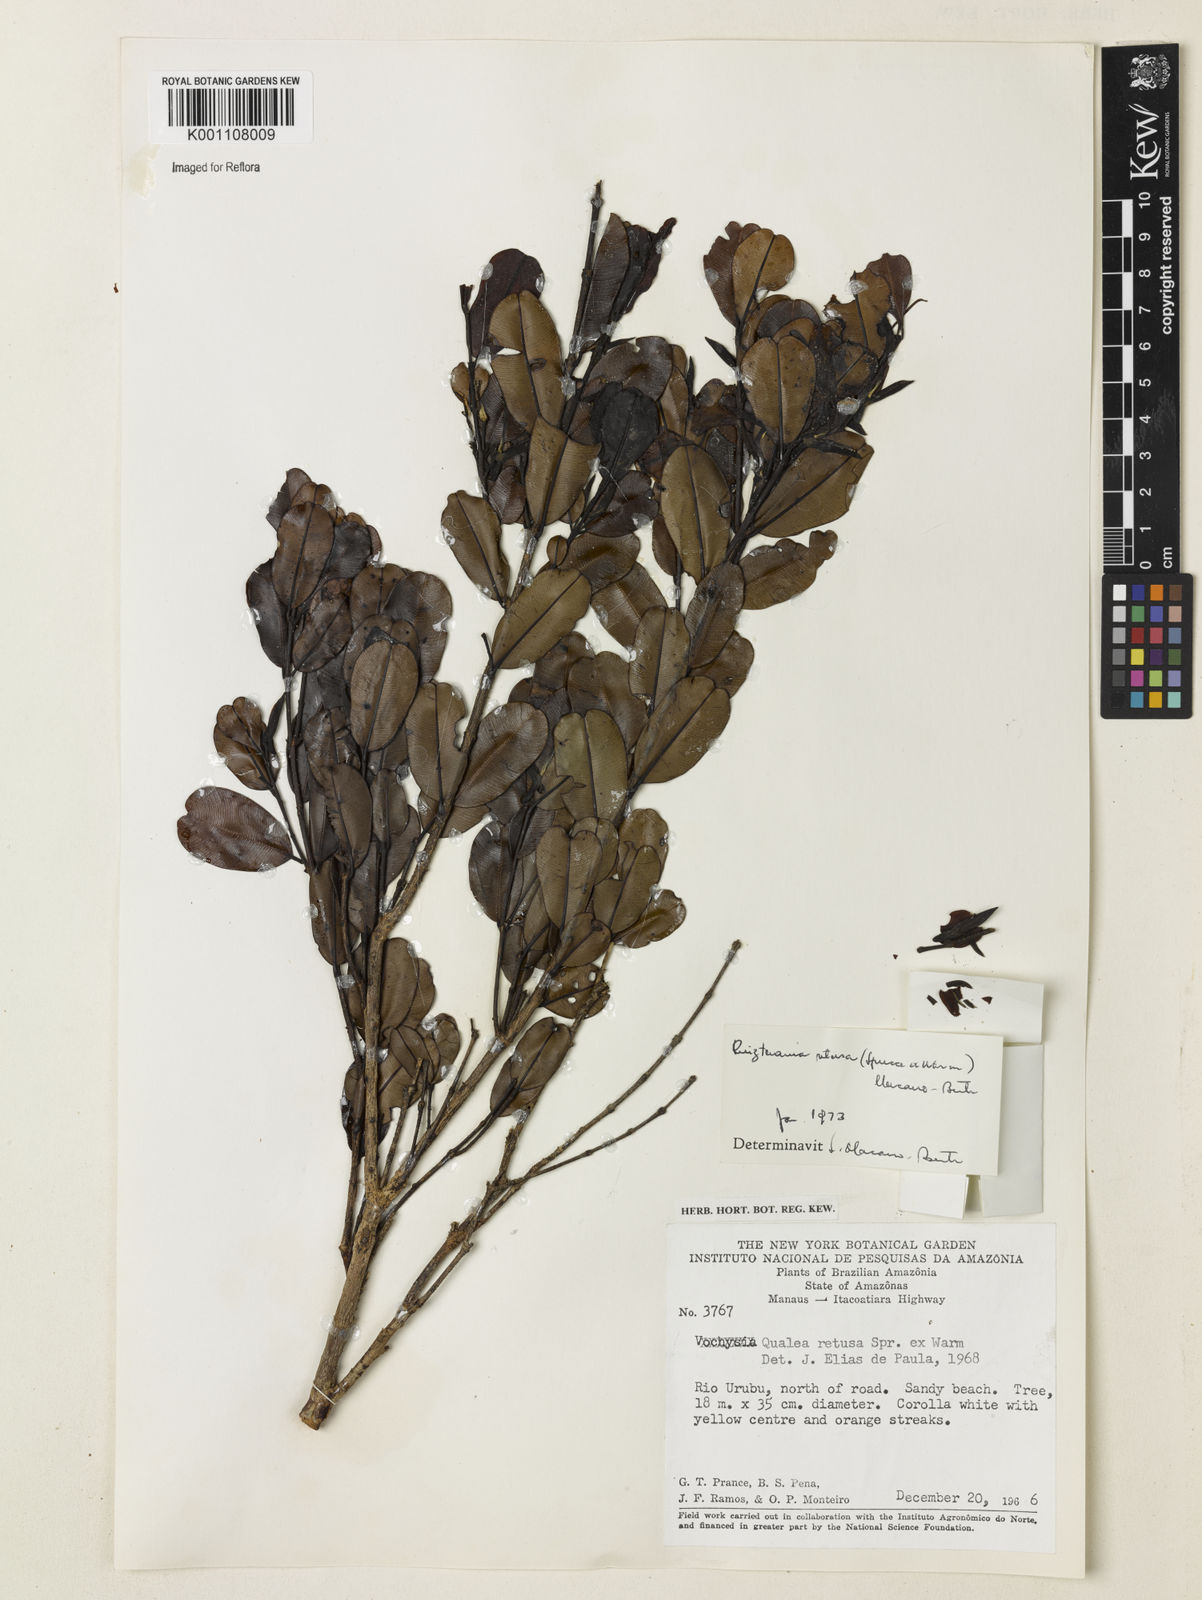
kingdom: Plantae
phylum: Tracheophyta
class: Magnoliopsida
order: Myrtales
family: Vochysiaceae
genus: Ruizterania
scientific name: Ruizterania retusa
